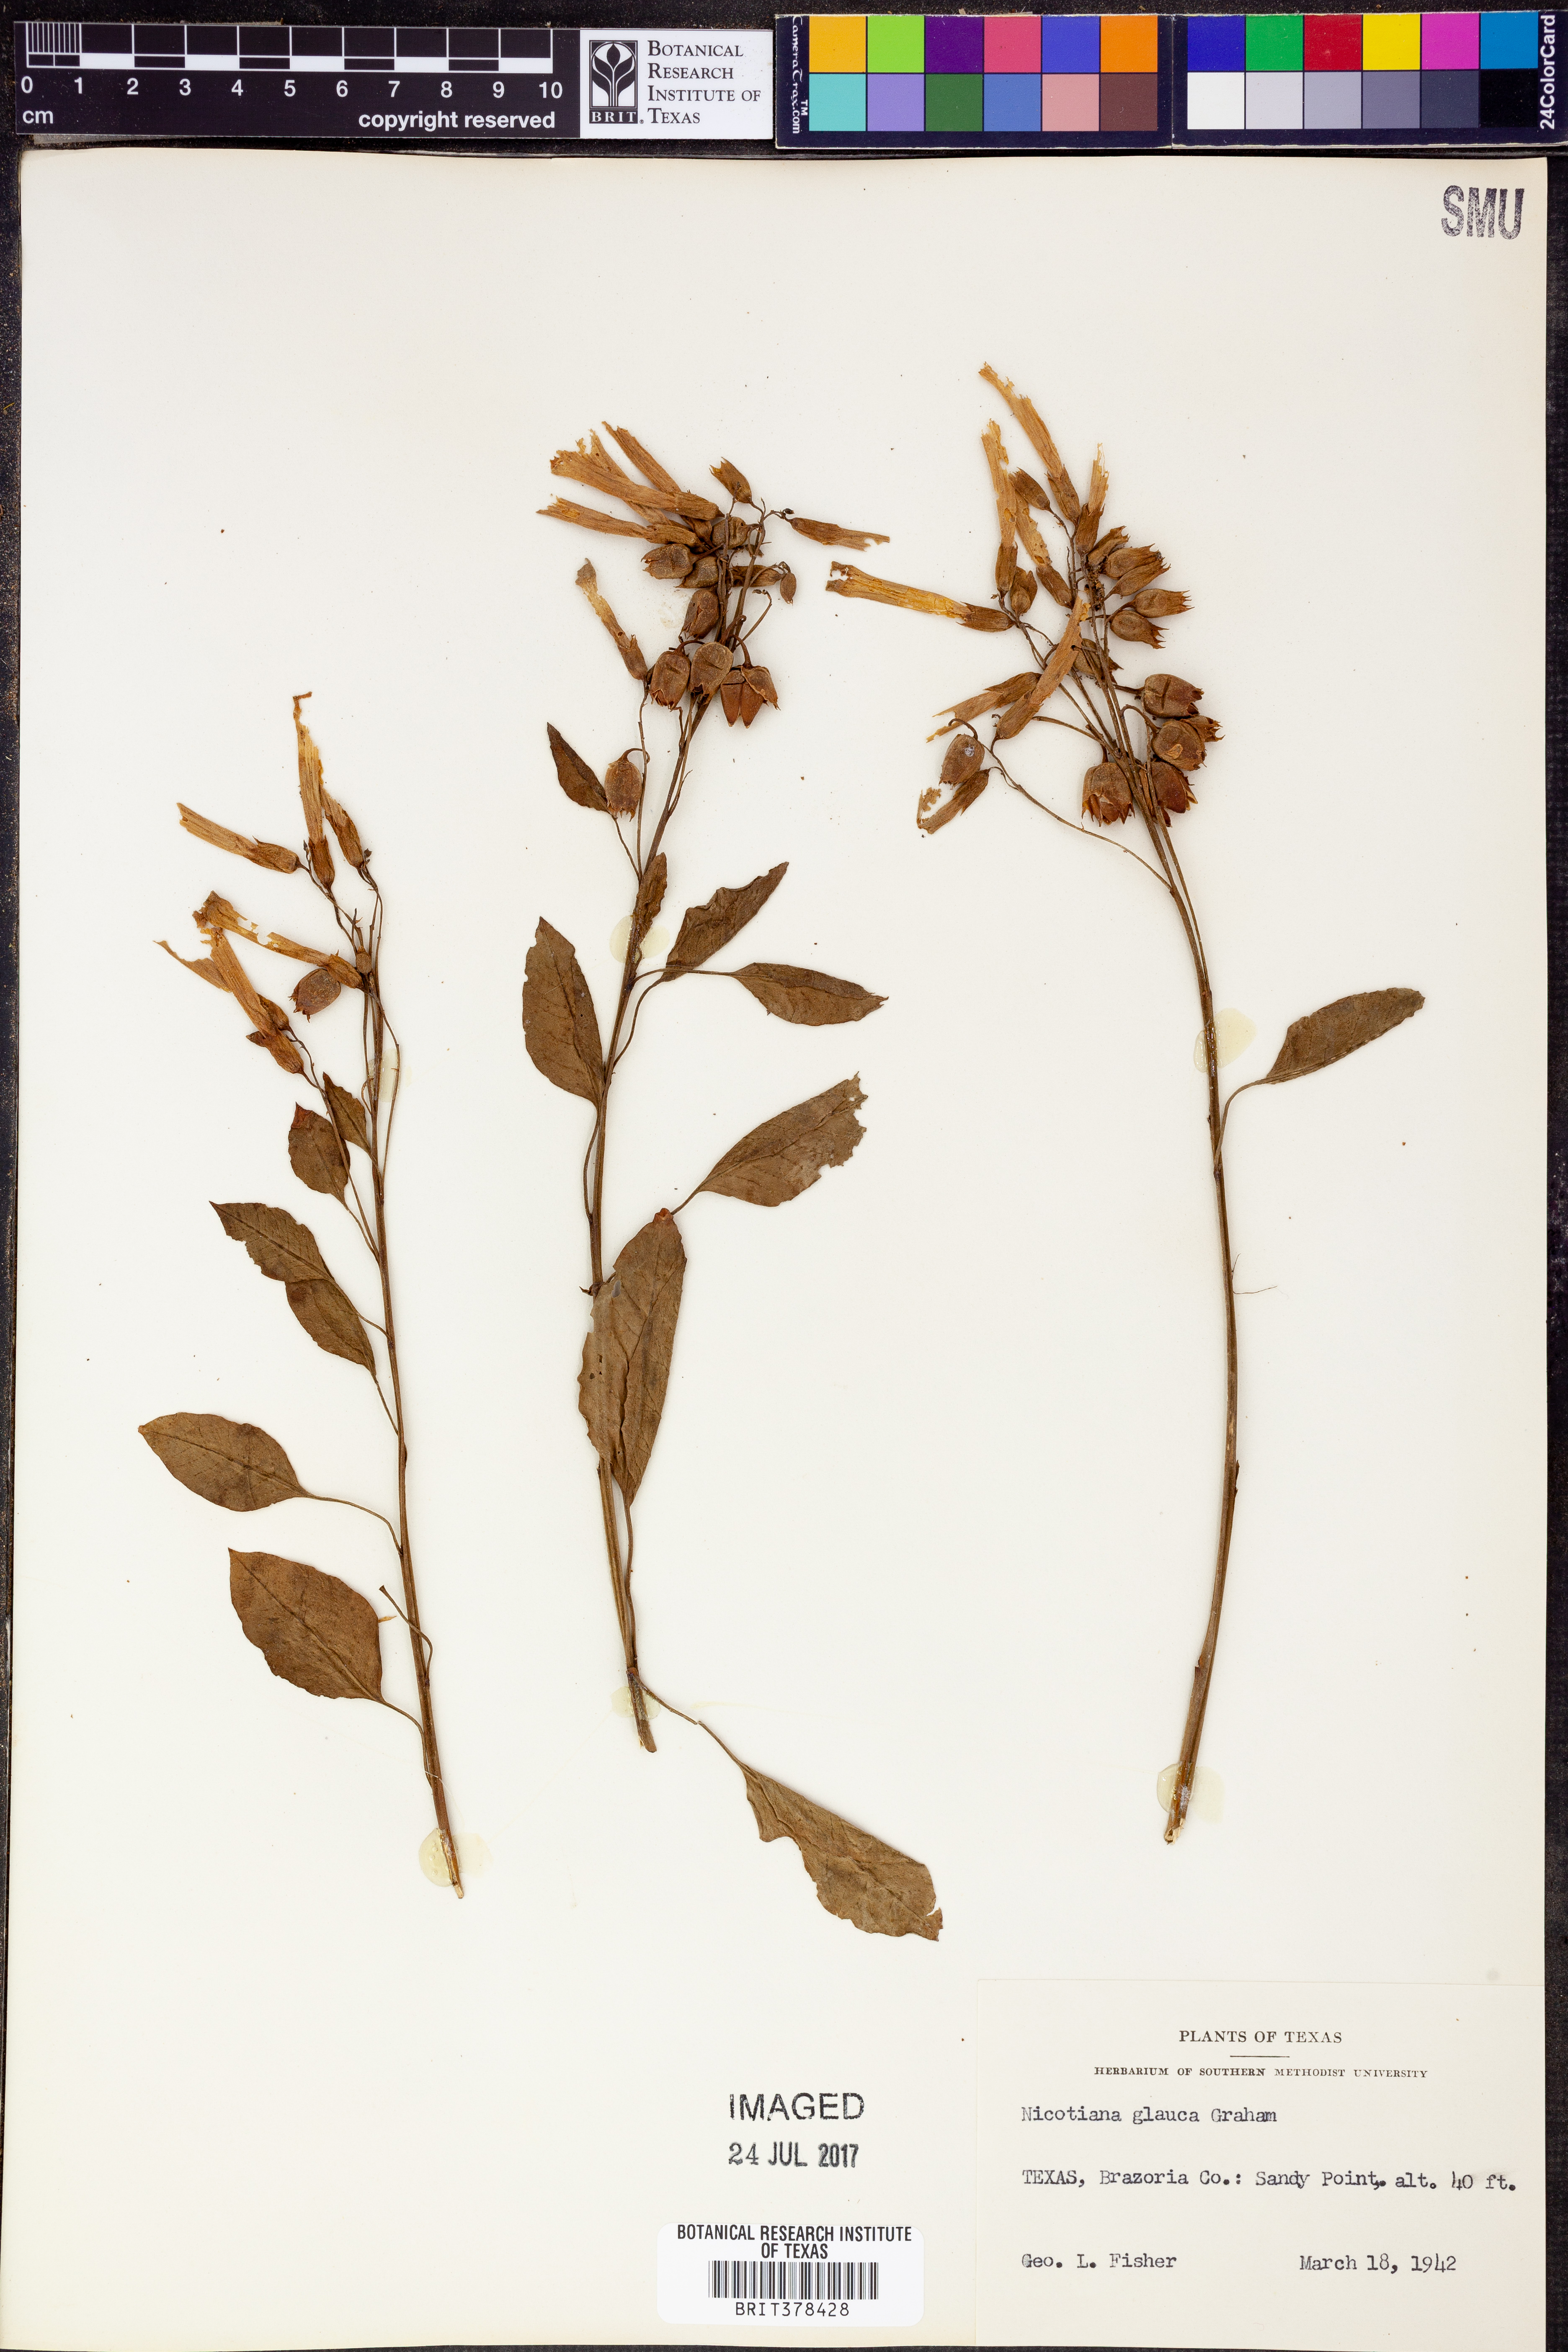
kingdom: Plantae
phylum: Tracheophyta
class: Magnoliopsida
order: Solanales
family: Solanaceae
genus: Nicotiana
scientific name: Nicotiana glauca
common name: Tree tobacco
